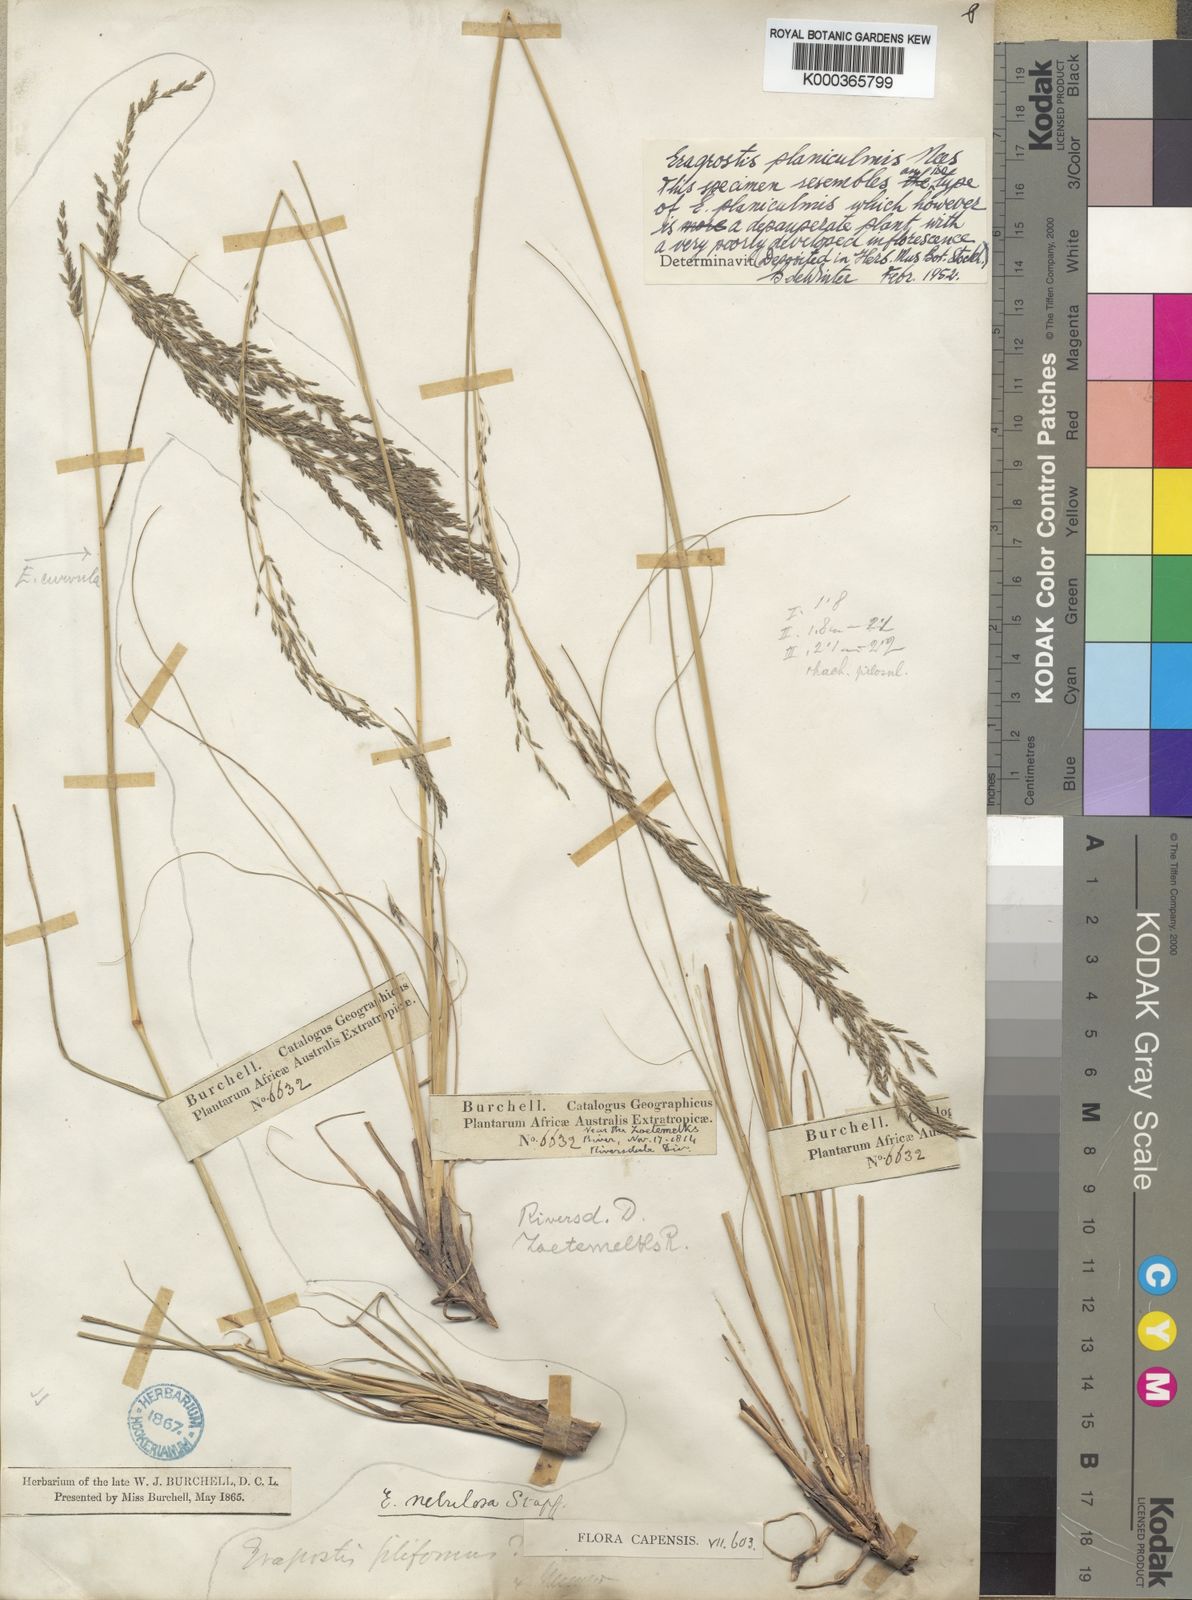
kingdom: Plantae
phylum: Tracheophyta
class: Liliopsida
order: Poales
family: Poaceae
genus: Eragrostis
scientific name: Eragrostis planiculmis
